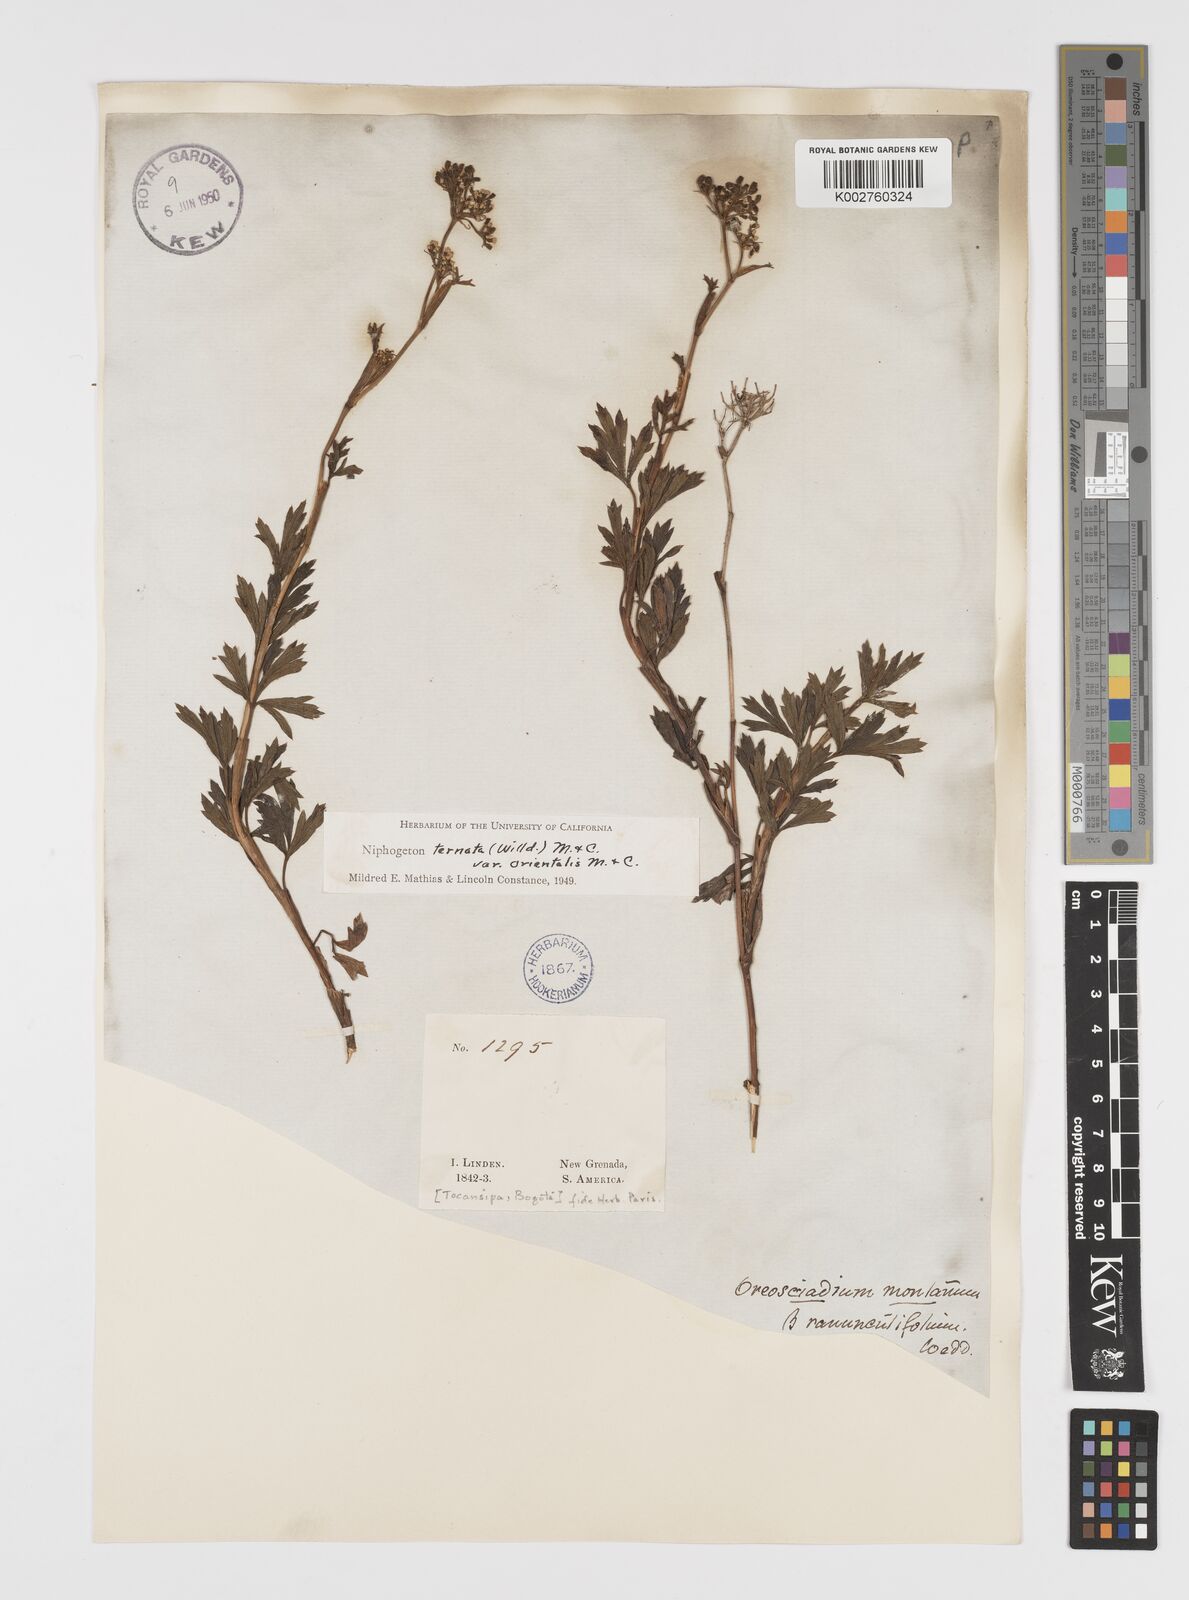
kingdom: Plantae
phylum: Tracheophyta
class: Magnoliopsida
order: Apiales
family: Apiaceae
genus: Niphogeton
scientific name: Niphogeton ternata
